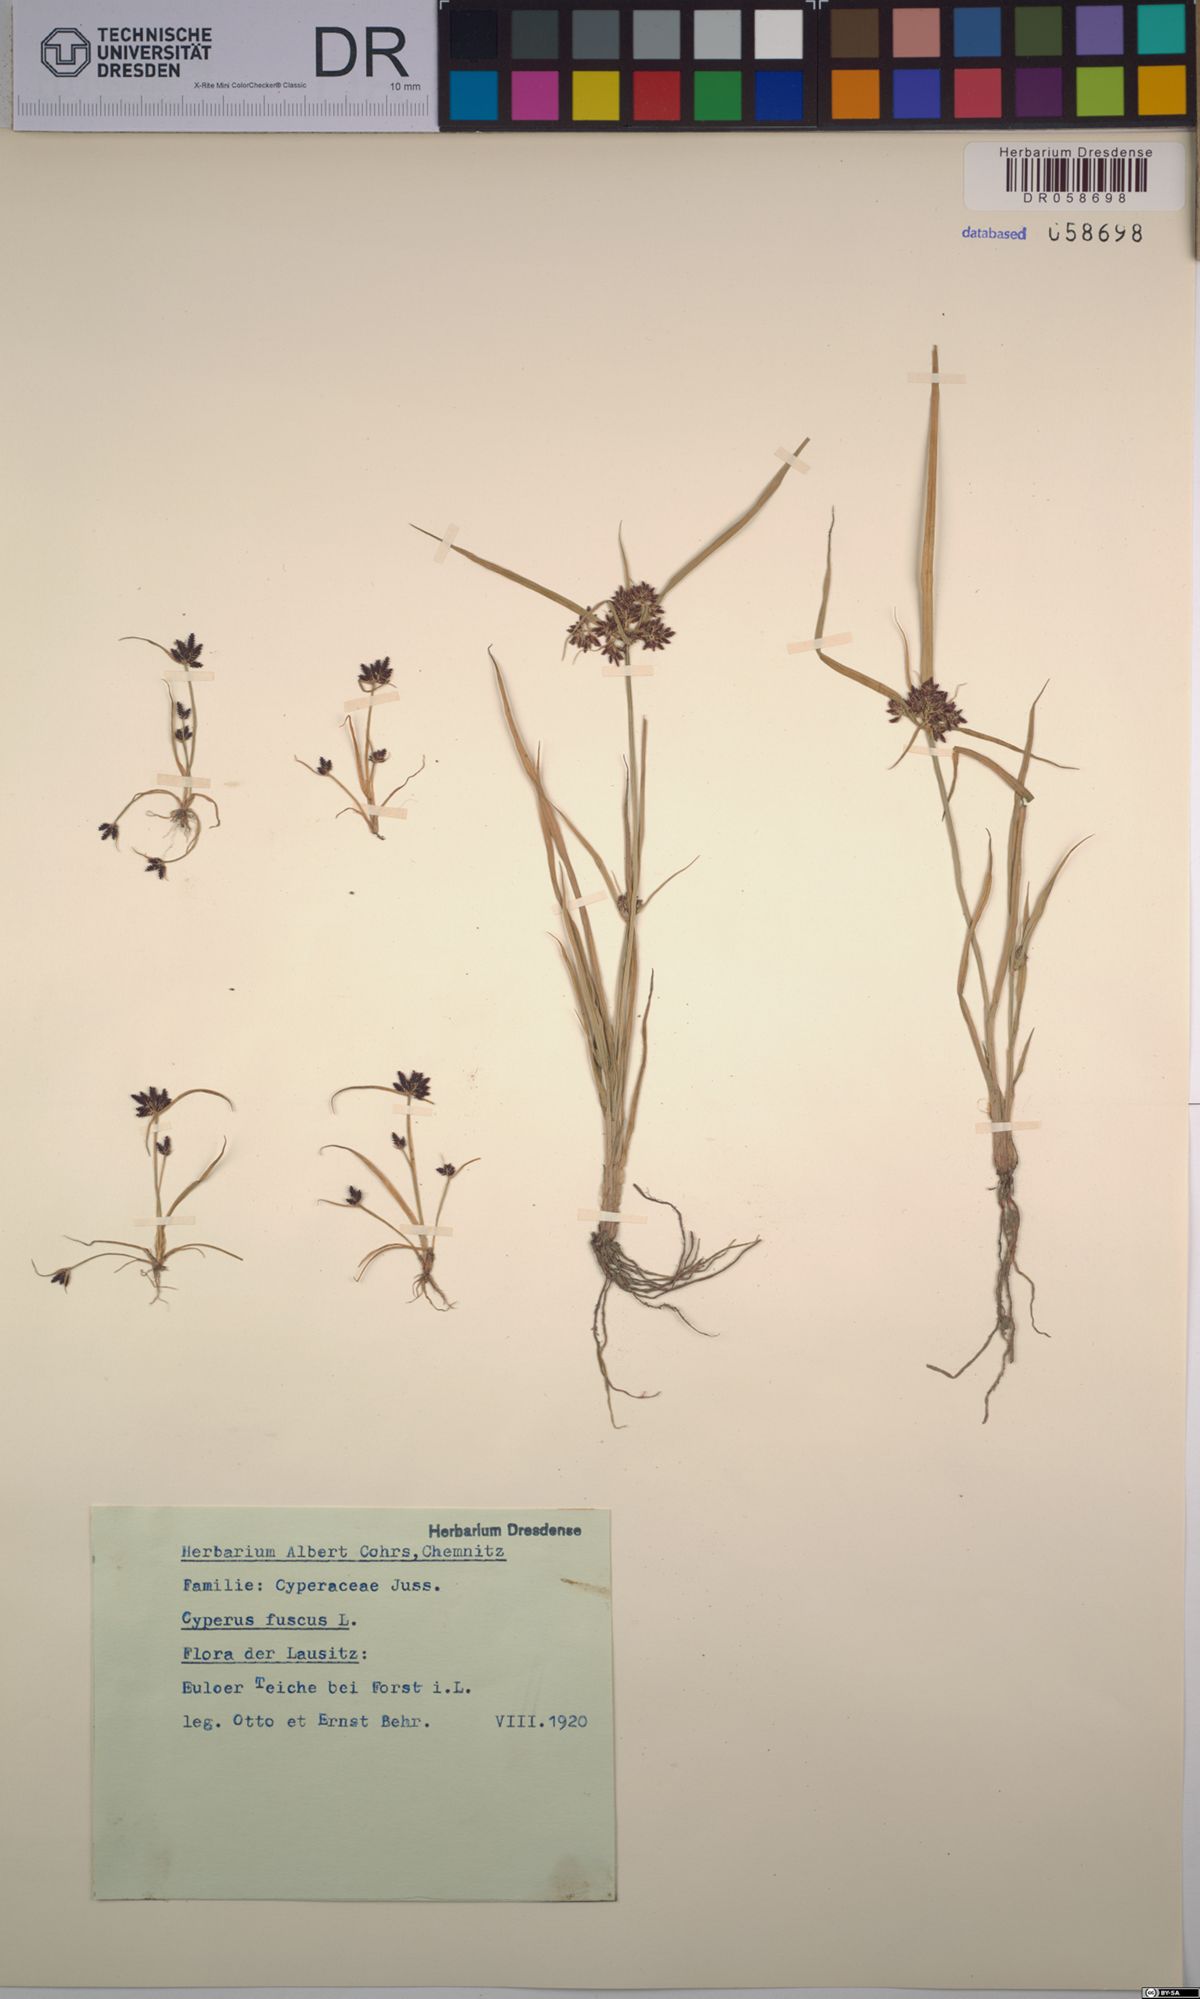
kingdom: Plantae
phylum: Tracheophyta
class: Liliopsida
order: Poales
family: Cyperaceae
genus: Cyperus
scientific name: Cyperus fuscus
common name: Brown galingale
